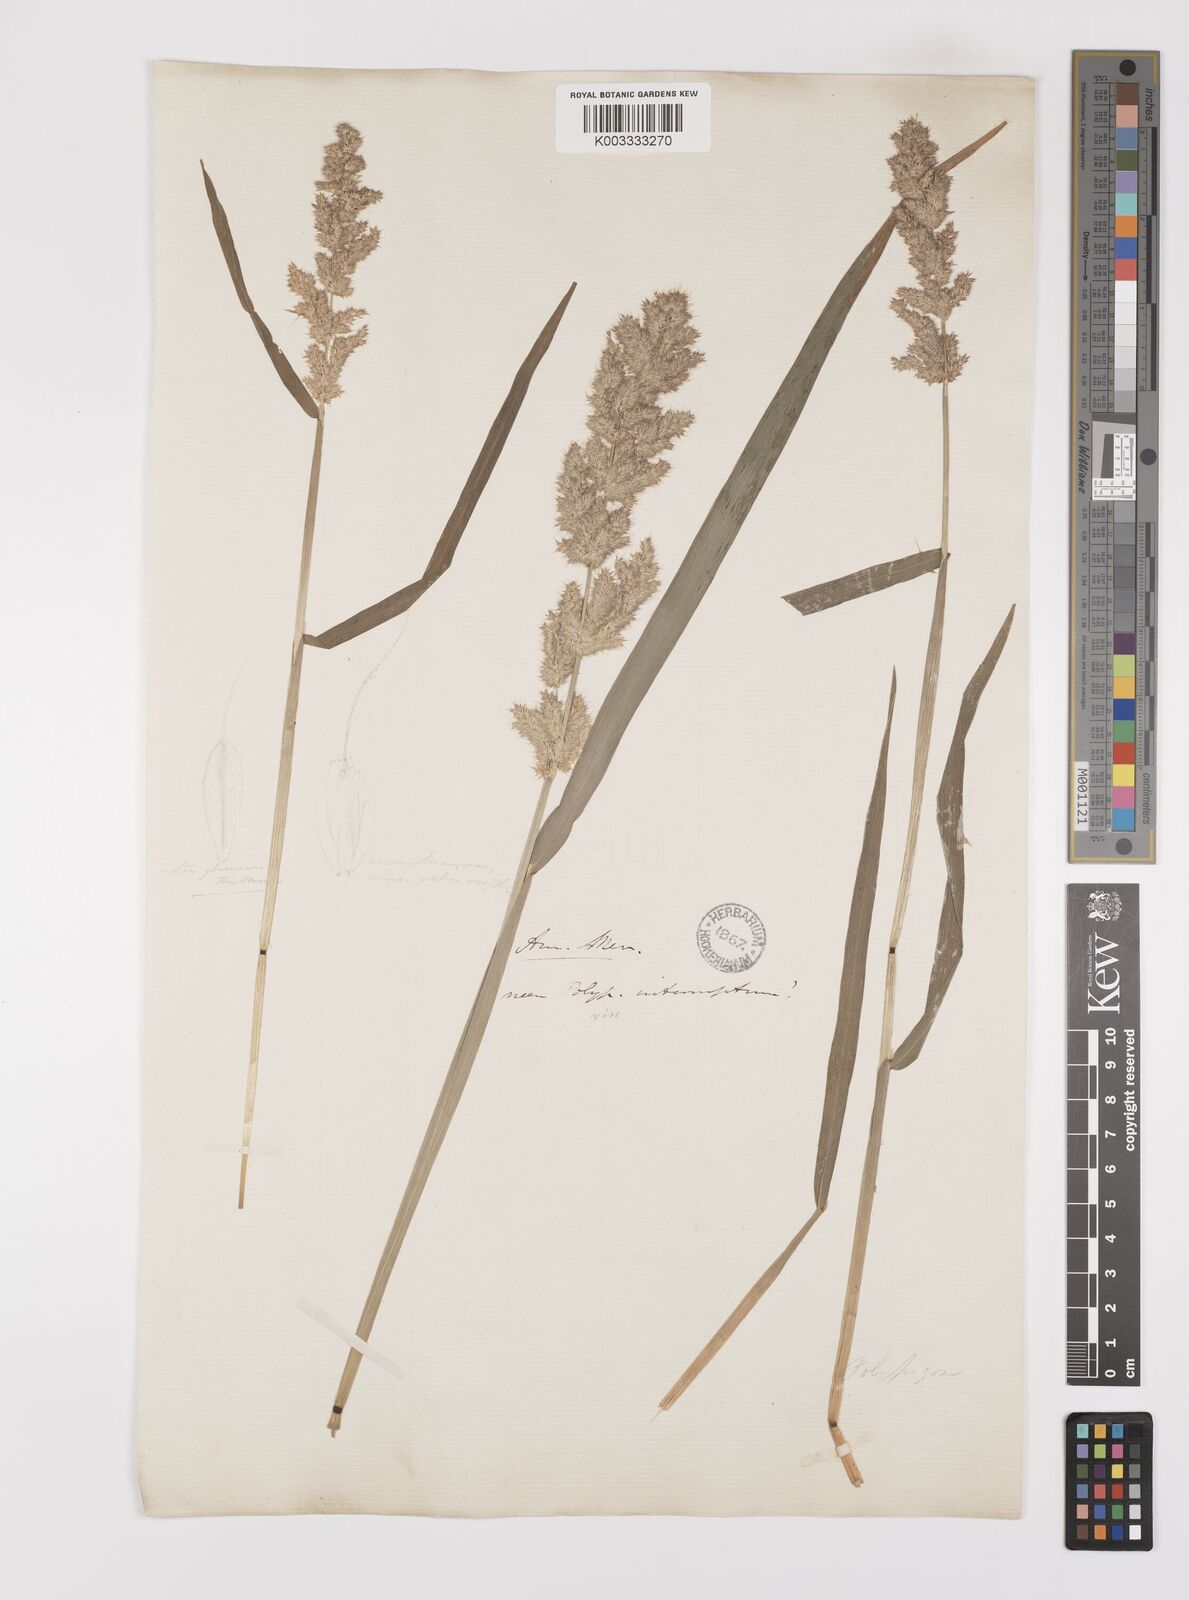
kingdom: Plantae
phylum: Tracheophyta
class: Liliopsida
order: Poales
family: Poaceae
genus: Polypogon
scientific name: Polypogon interruptus
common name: Ditch polypogon
